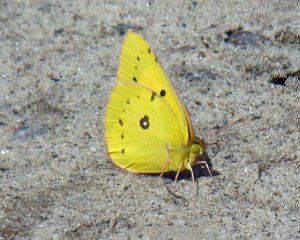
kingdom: Animalia
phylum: Arthropoda
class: Insecta
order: Lepidoptera
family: Pieridae
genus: Colias
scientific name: Colias eurytheme
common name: Orange Sulphur
